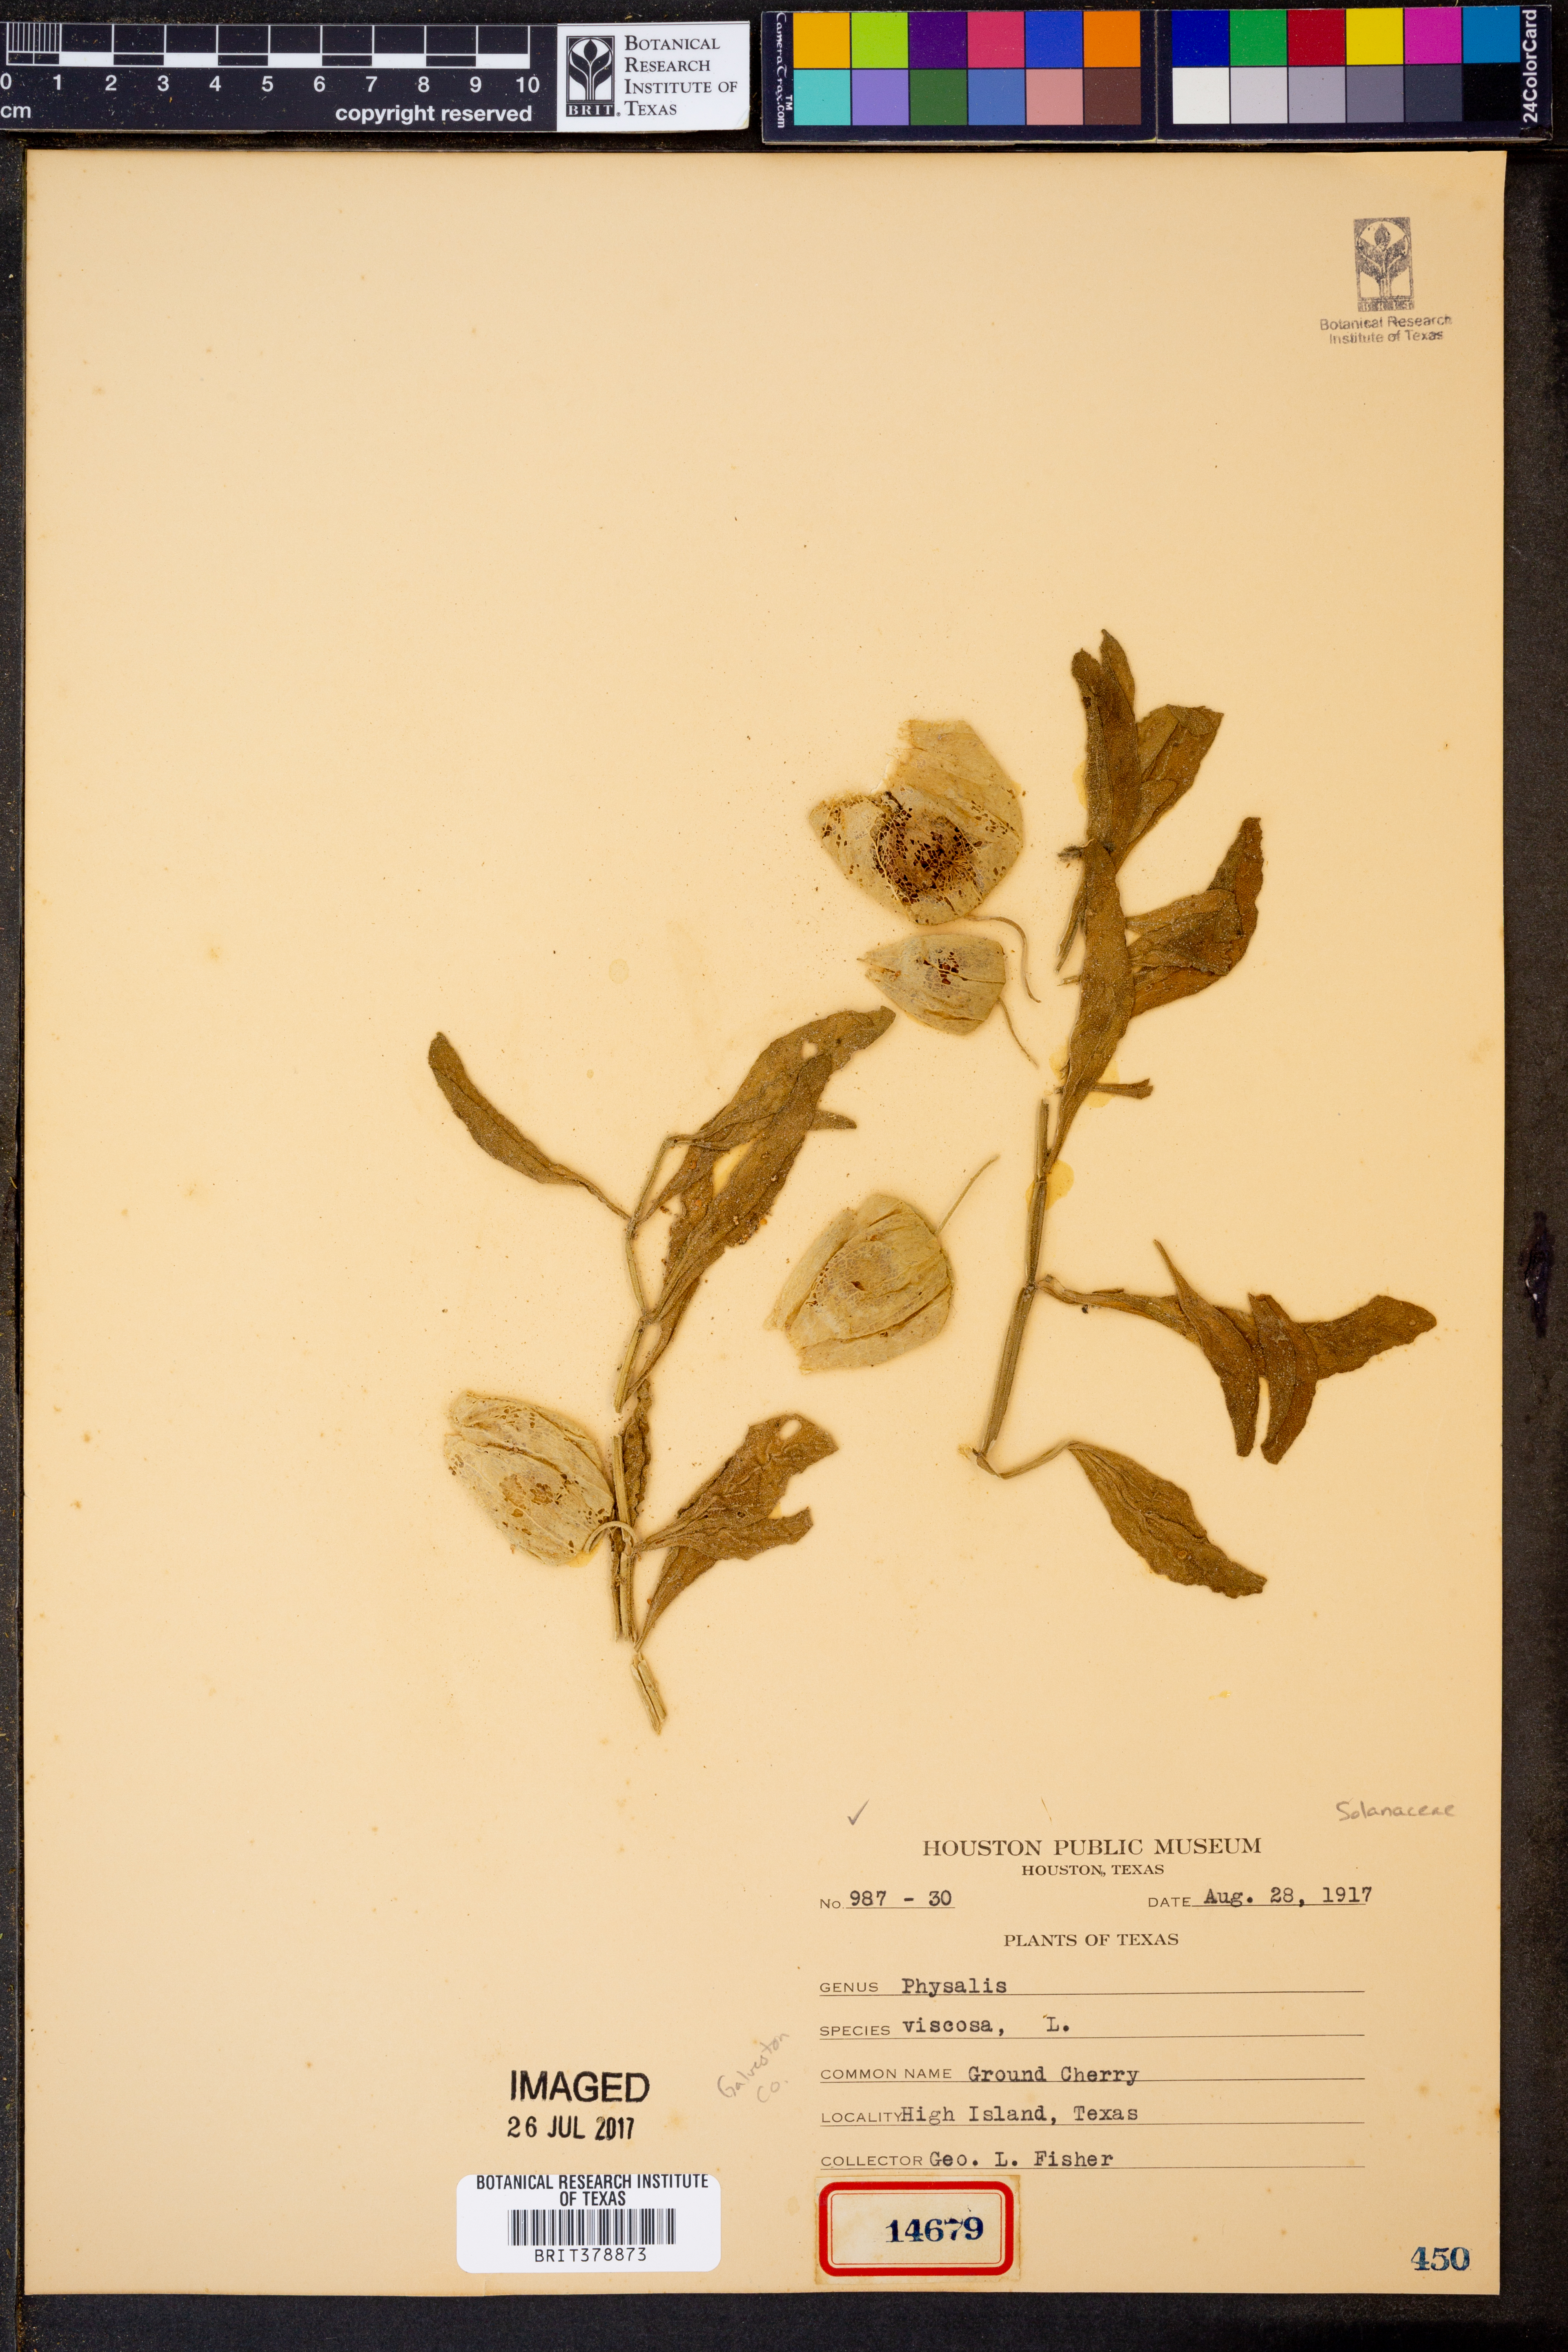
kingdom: Plantae
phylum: Tracheophyta
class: Magnoliopsida
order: Solanales
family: Solanaceae
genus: Physalis
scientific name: Physalis viscosa
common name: Stellate ground-cherry
